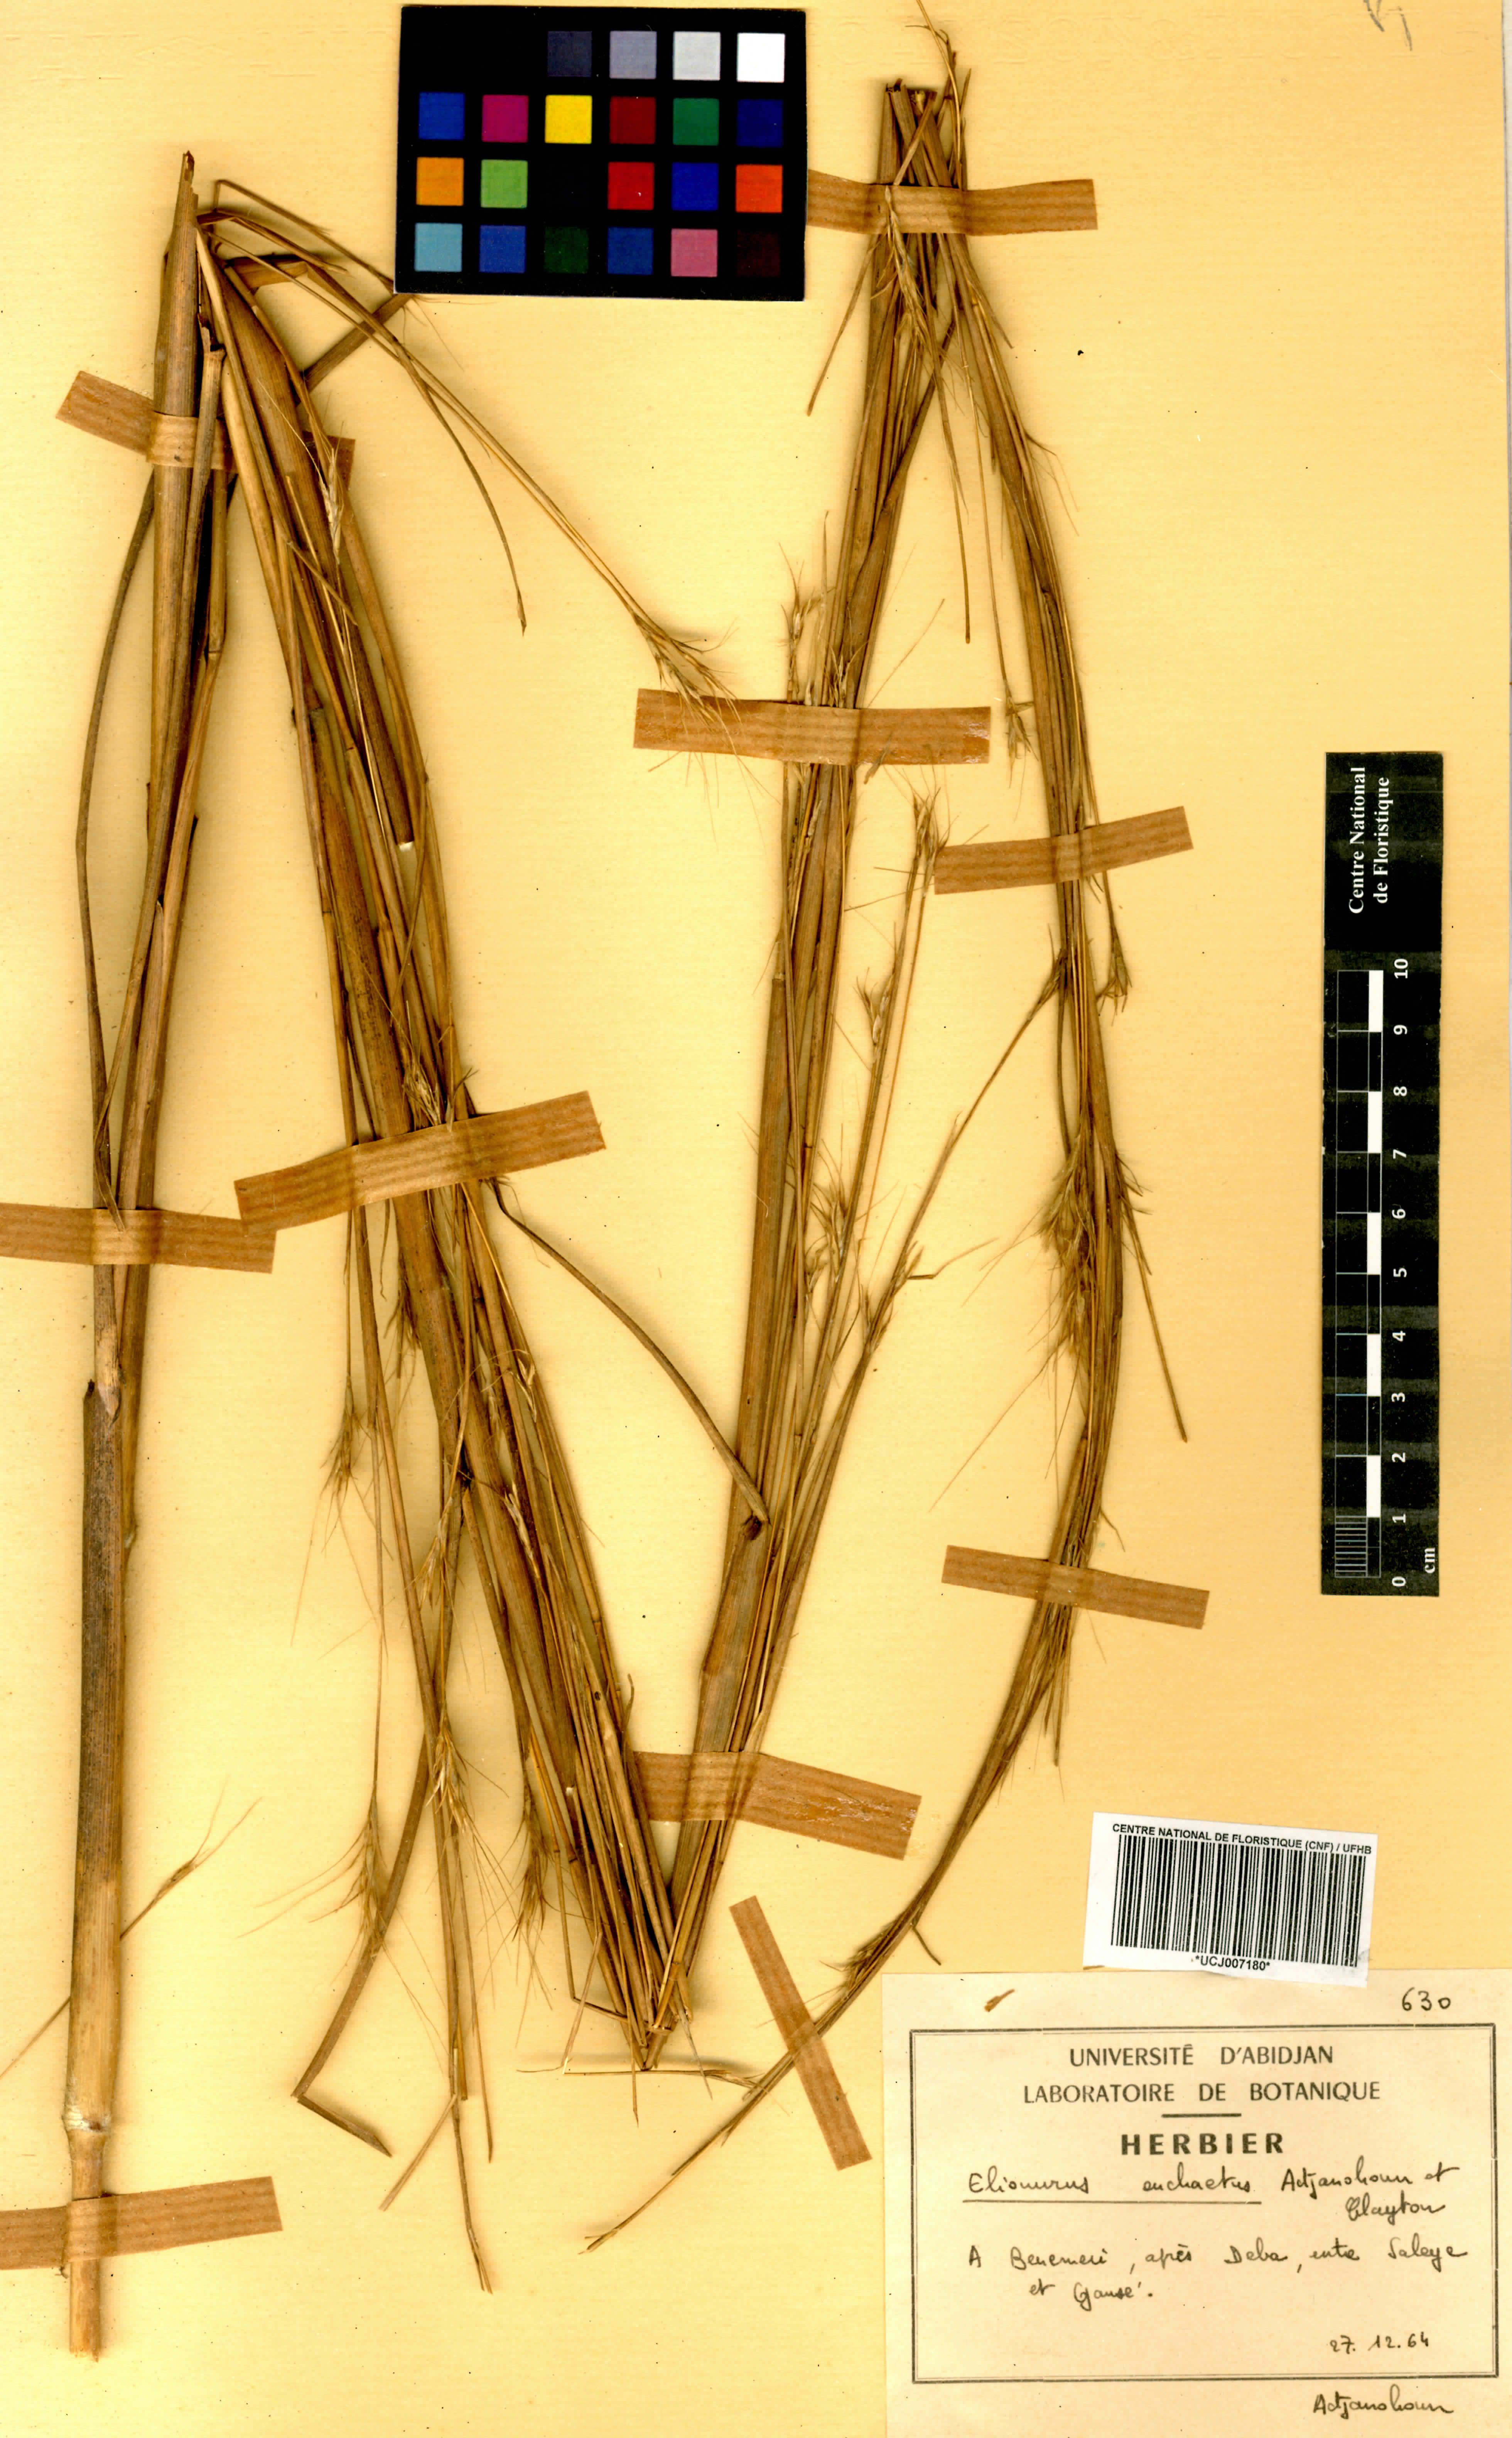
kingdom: Plantae
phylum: Tracheophyta
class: Liliopsida
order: Poales
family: Poaceae
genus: Elionurus
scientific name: Elionurus euchaetus
